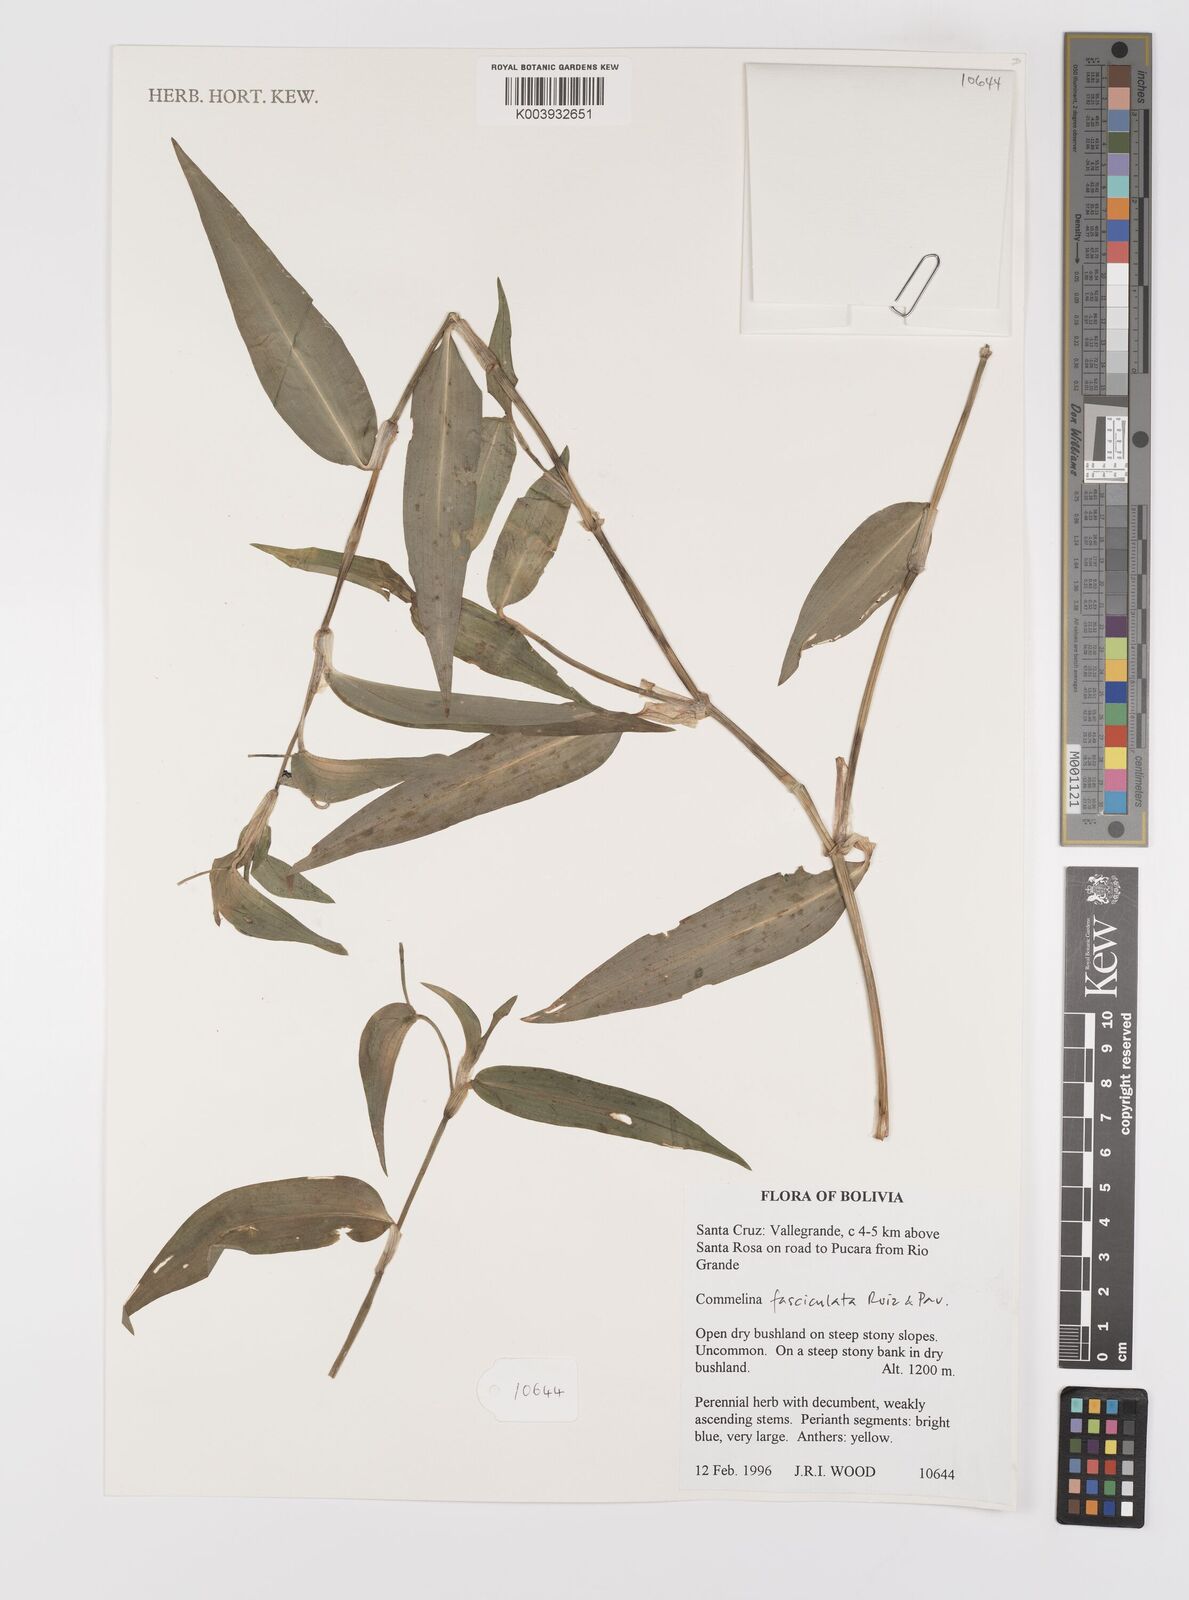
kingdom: Plantae
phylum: Tracheophyta
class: Liliopsida
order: Commelinales
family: Commelinaceae
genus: Commelina
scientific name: Commelina tuberosa
